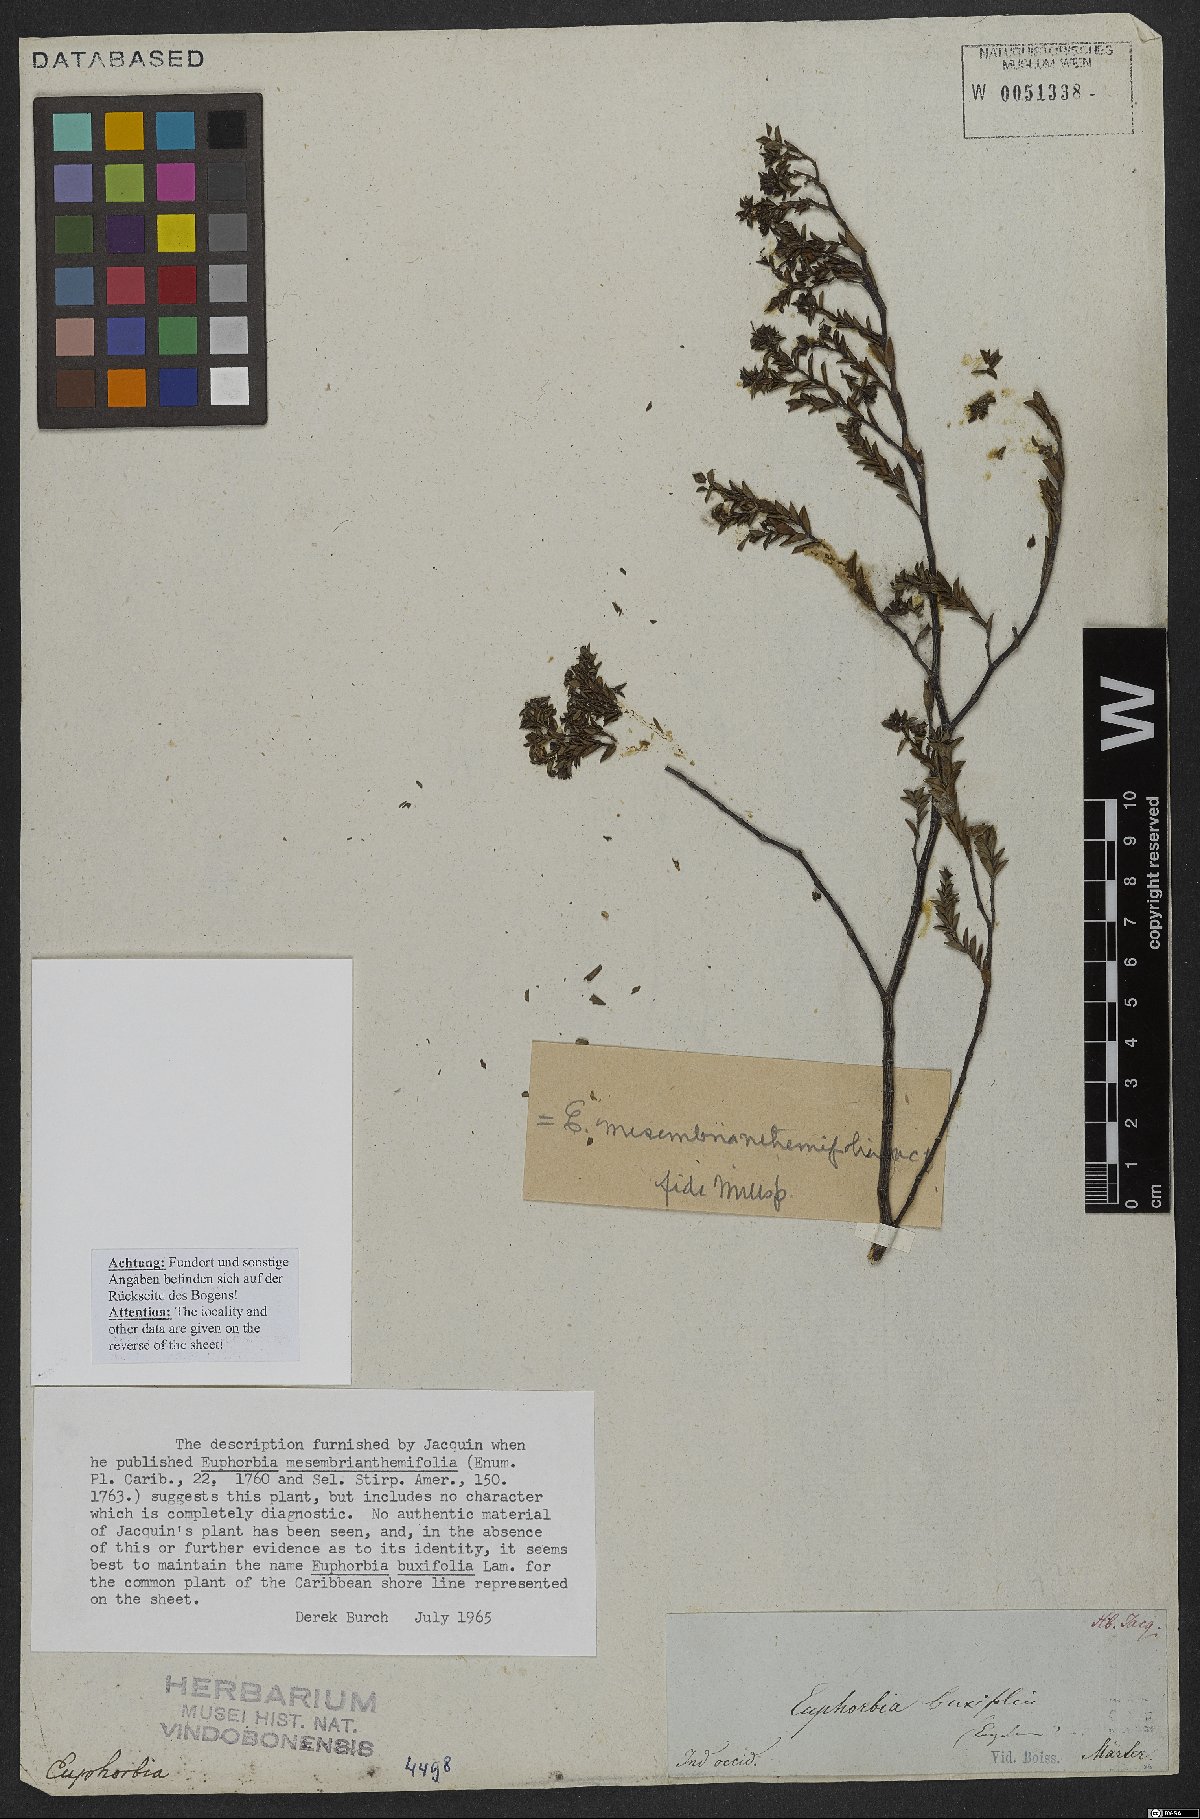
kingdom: Plantae
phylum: Tracheophyta
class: Magnoliopsida
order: Malpighiales
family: Euphorbiaceae
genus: Euphorbia
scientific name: Euphorbia mesembryanthemifolia
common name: Coastal beach sandmat
